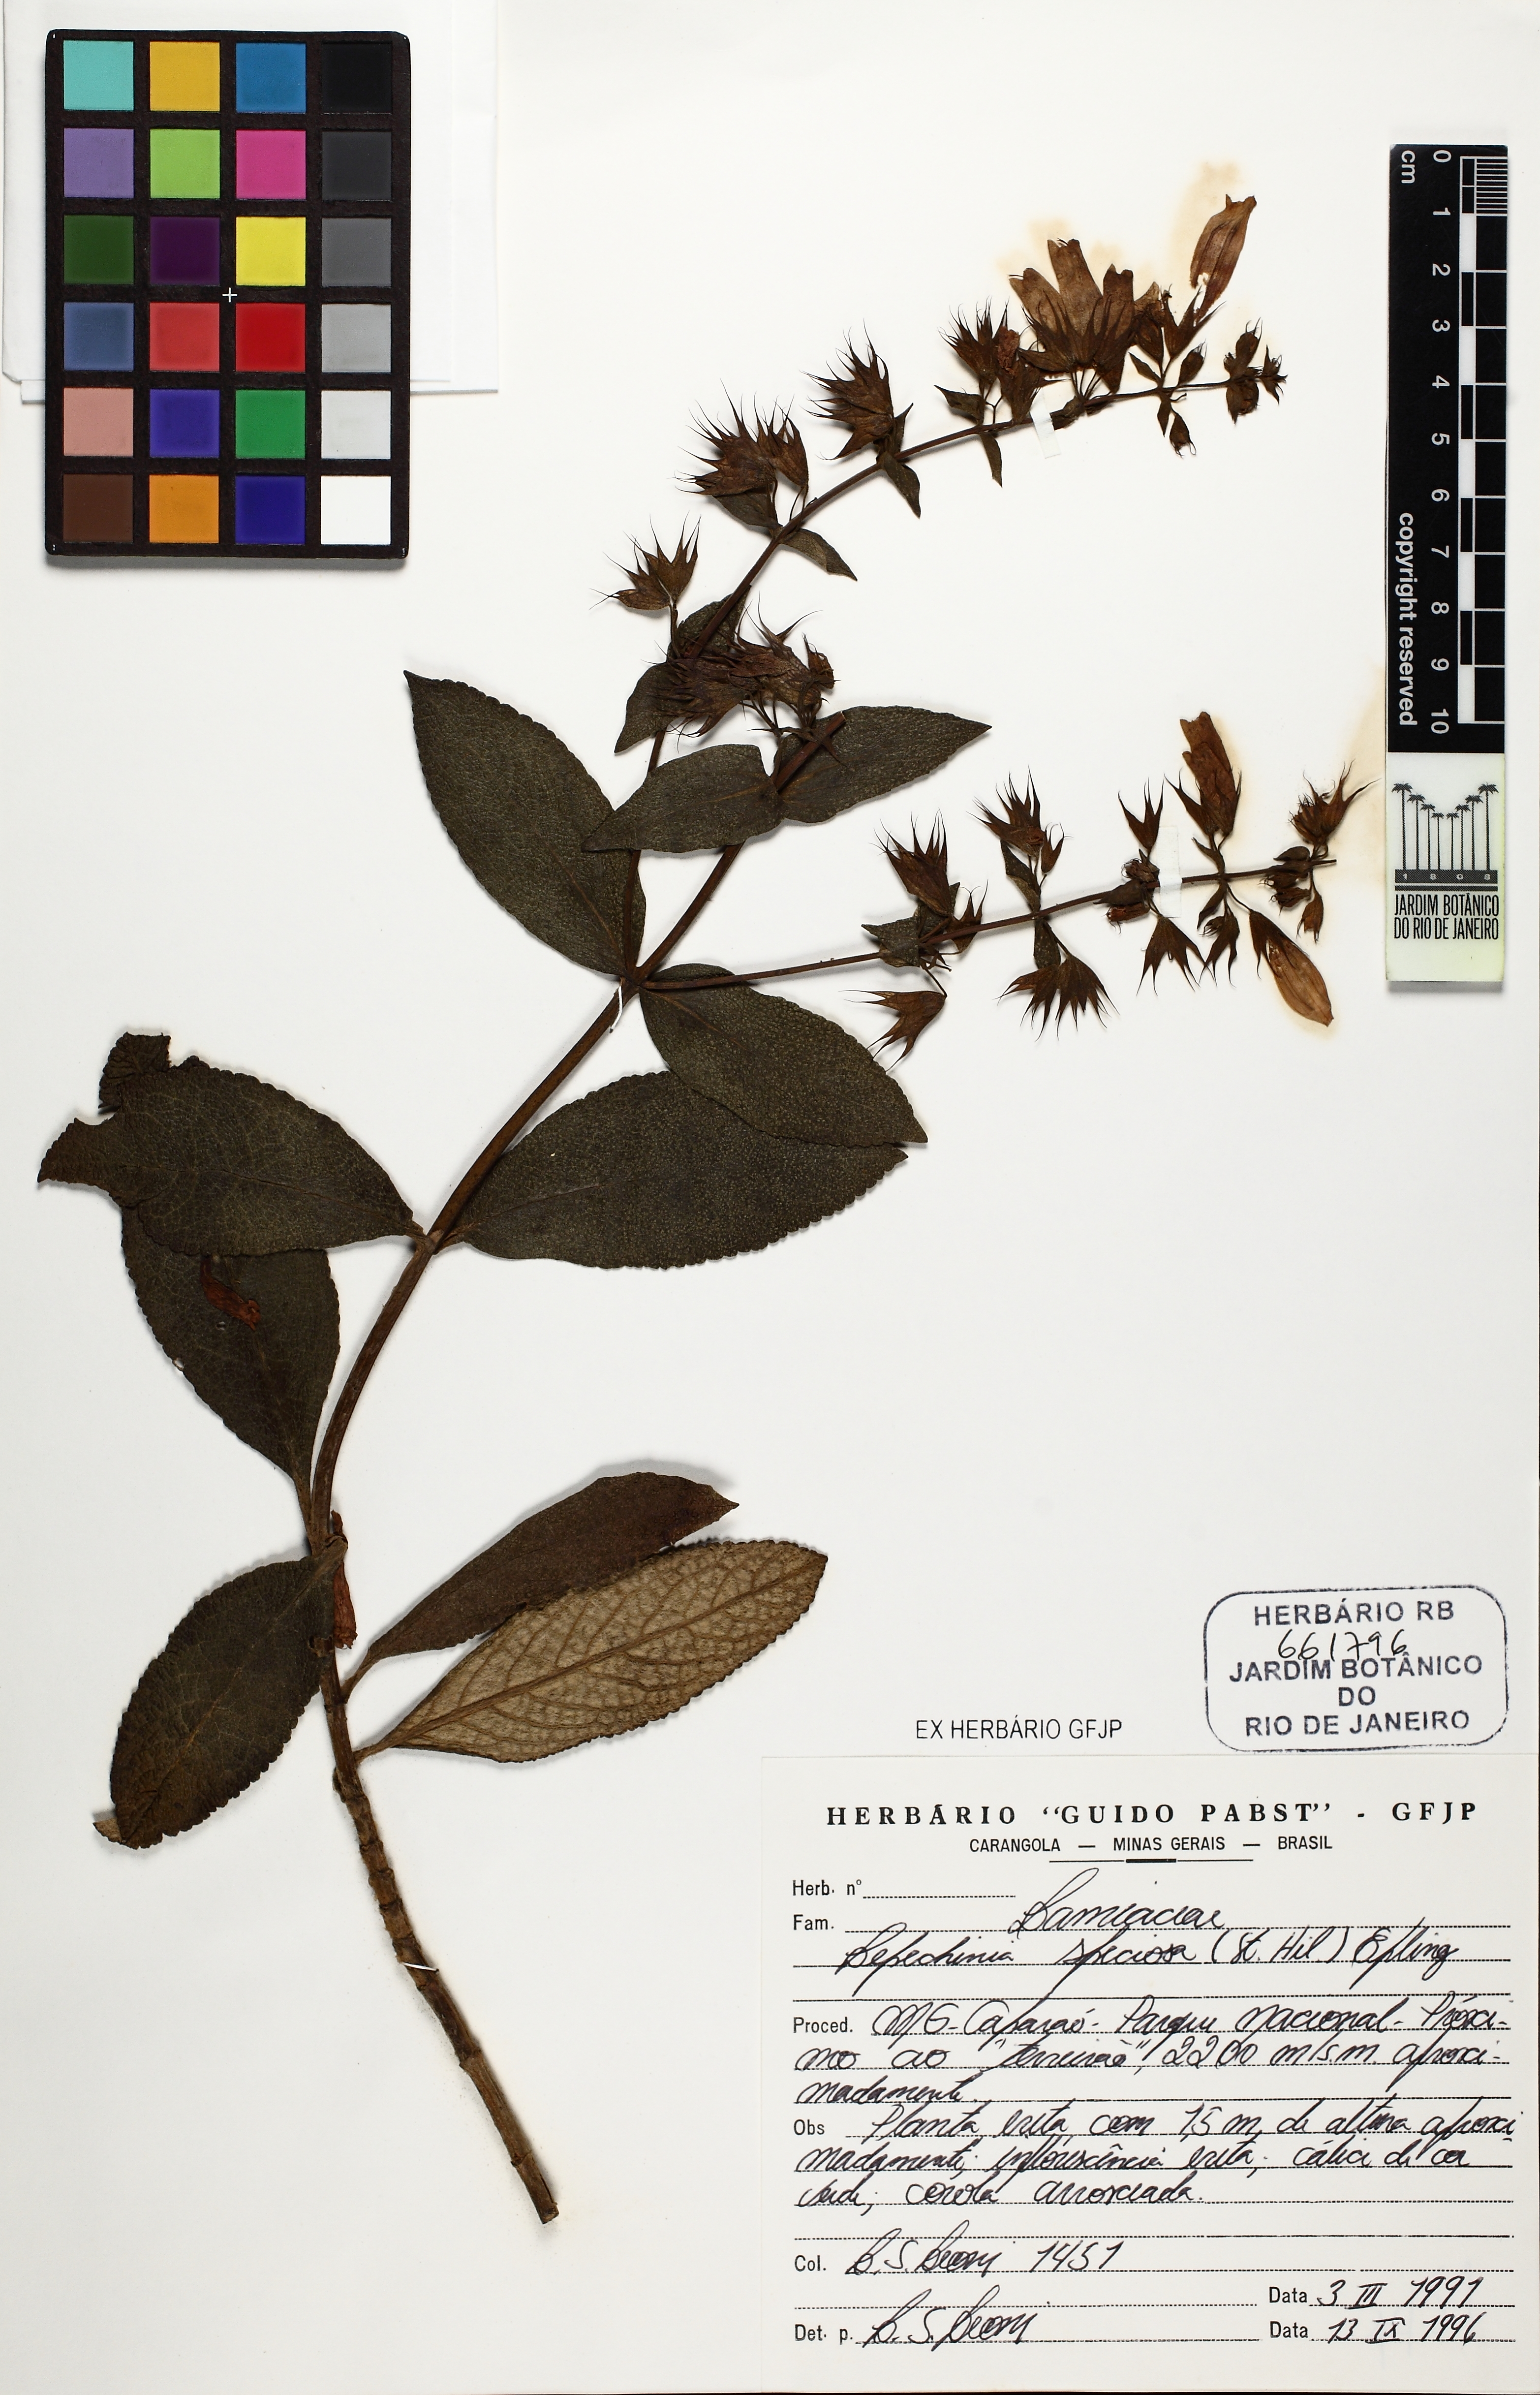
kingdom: Plantae
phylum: Tracheophyta
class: Magnoliopsida
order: Lamiales
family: Lamiaceae
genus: Lepechinia
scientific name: Lepechinia annae
